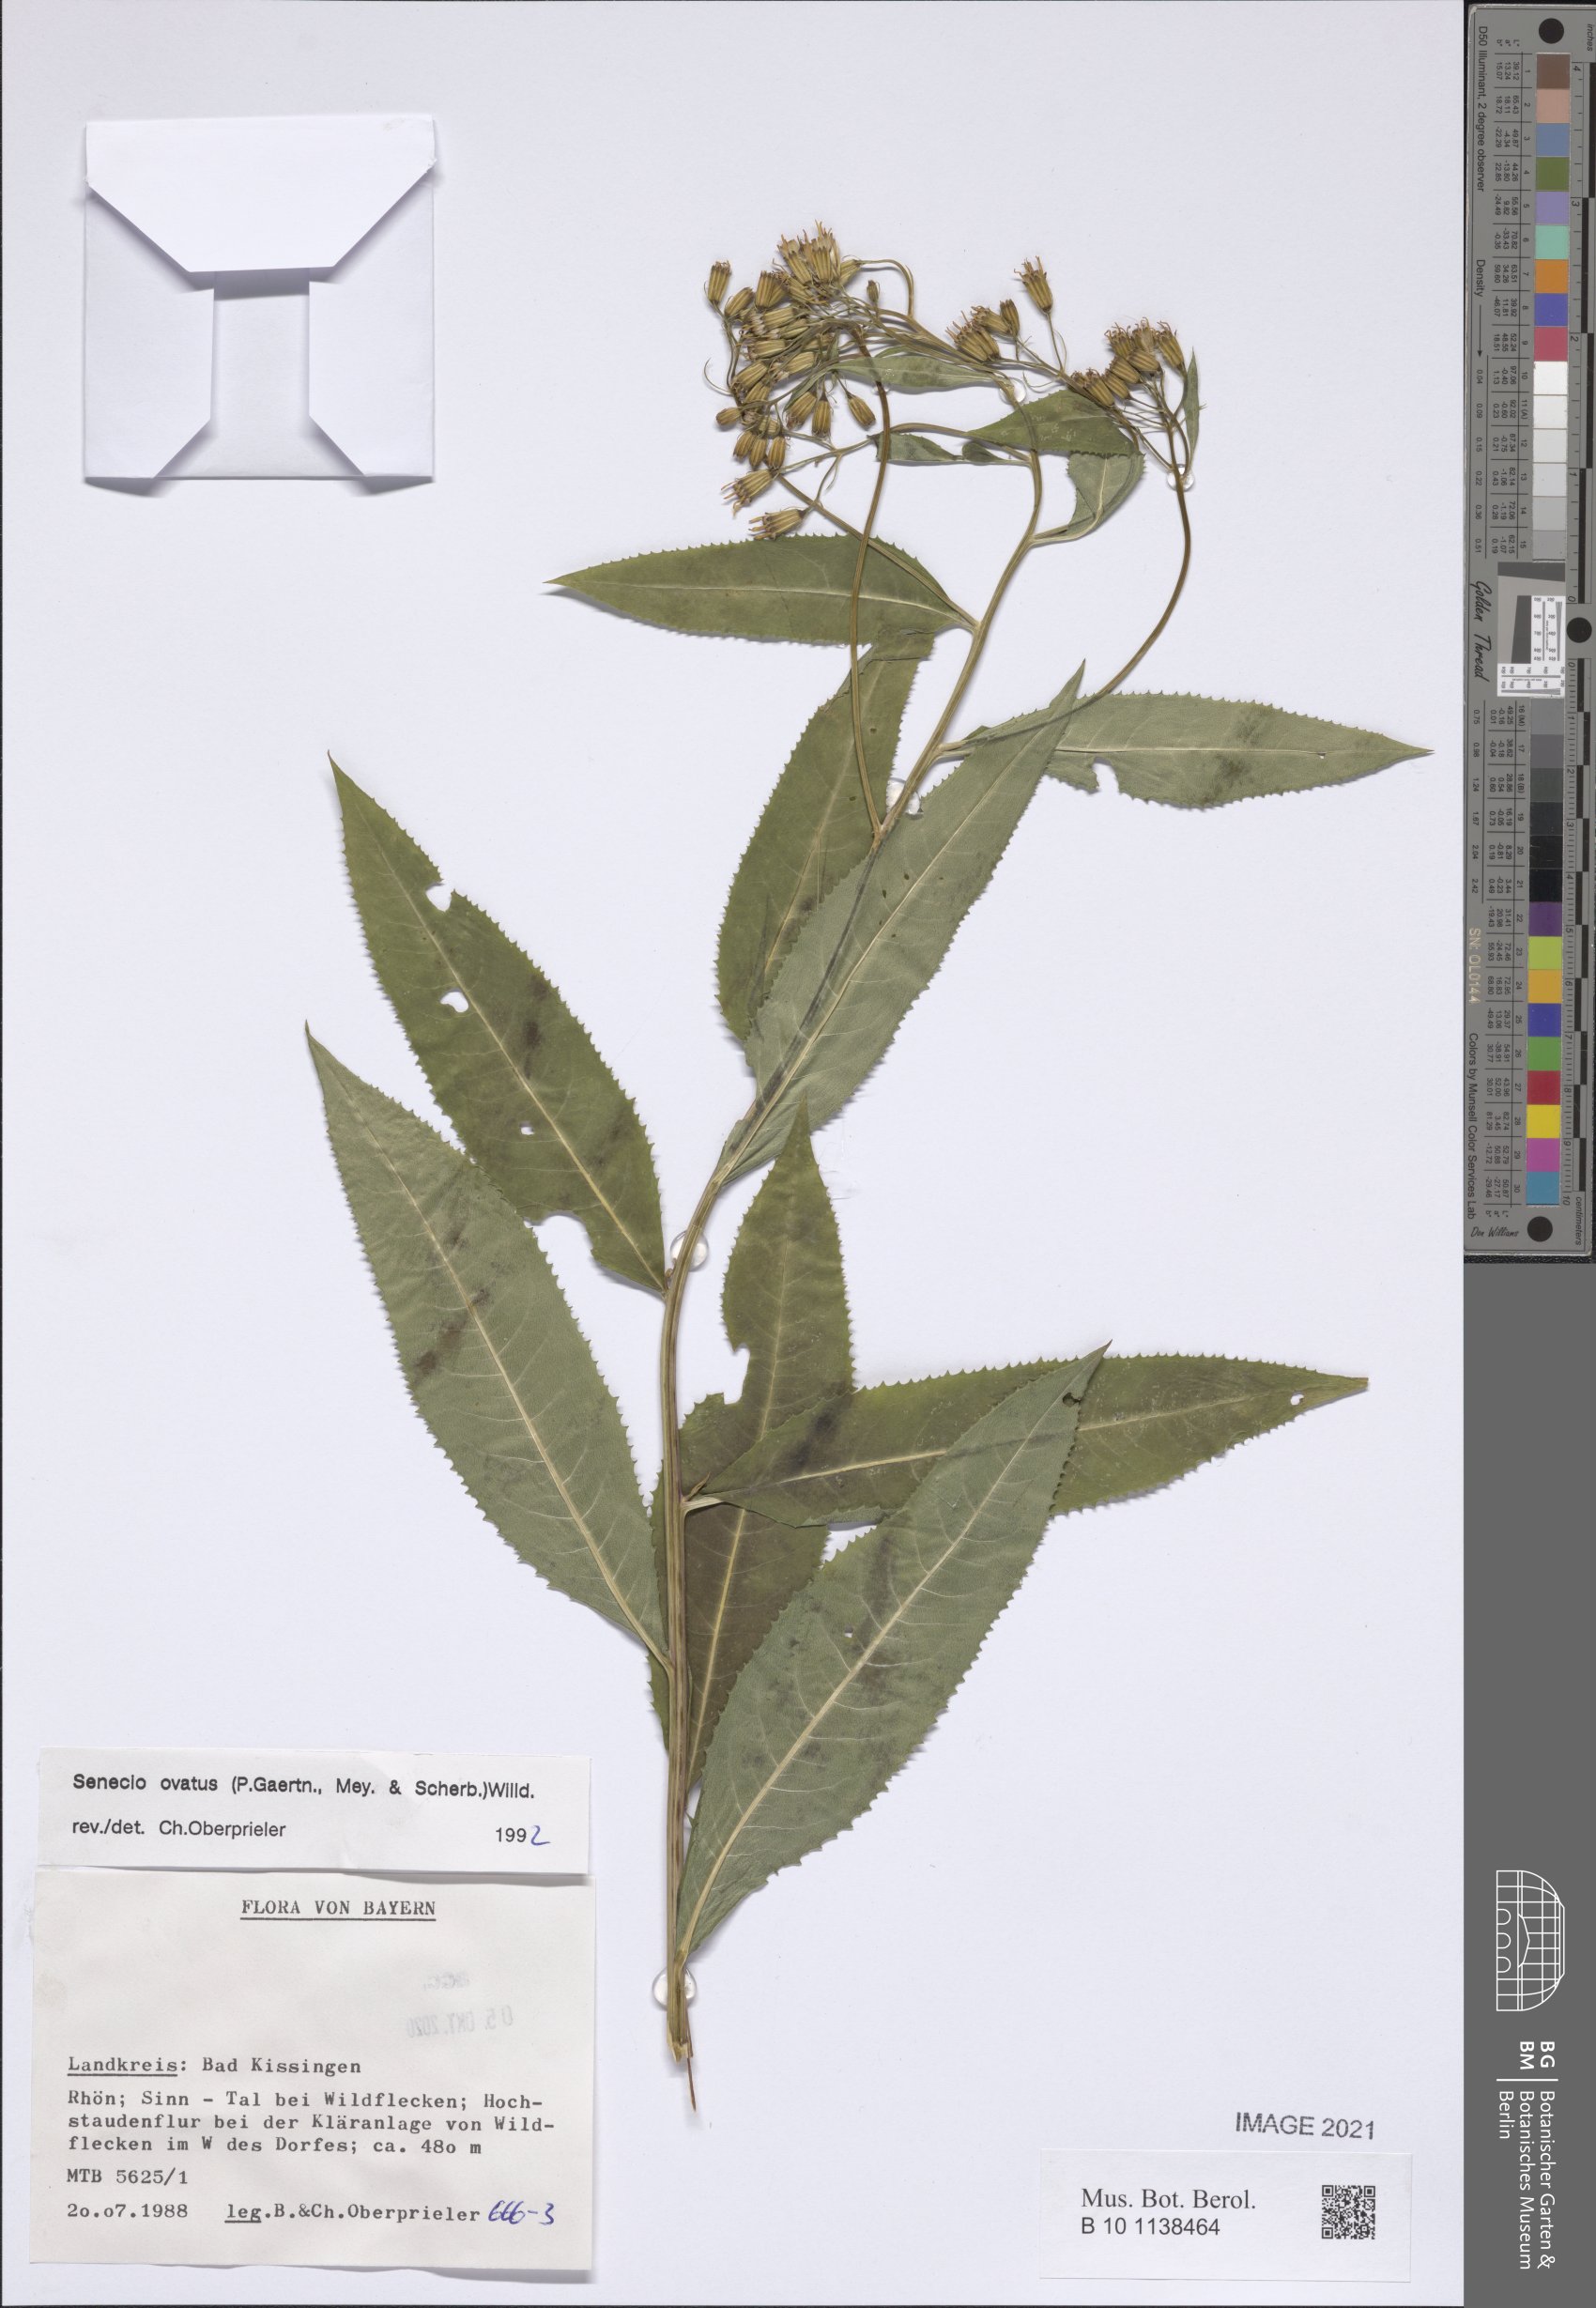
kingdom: Plantae
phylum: Tracheophyta
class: Magnoliopsida
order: Asterales
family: Asteraceae
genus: Senecio
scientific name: Senecio ovatus
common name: Wood ragwort
